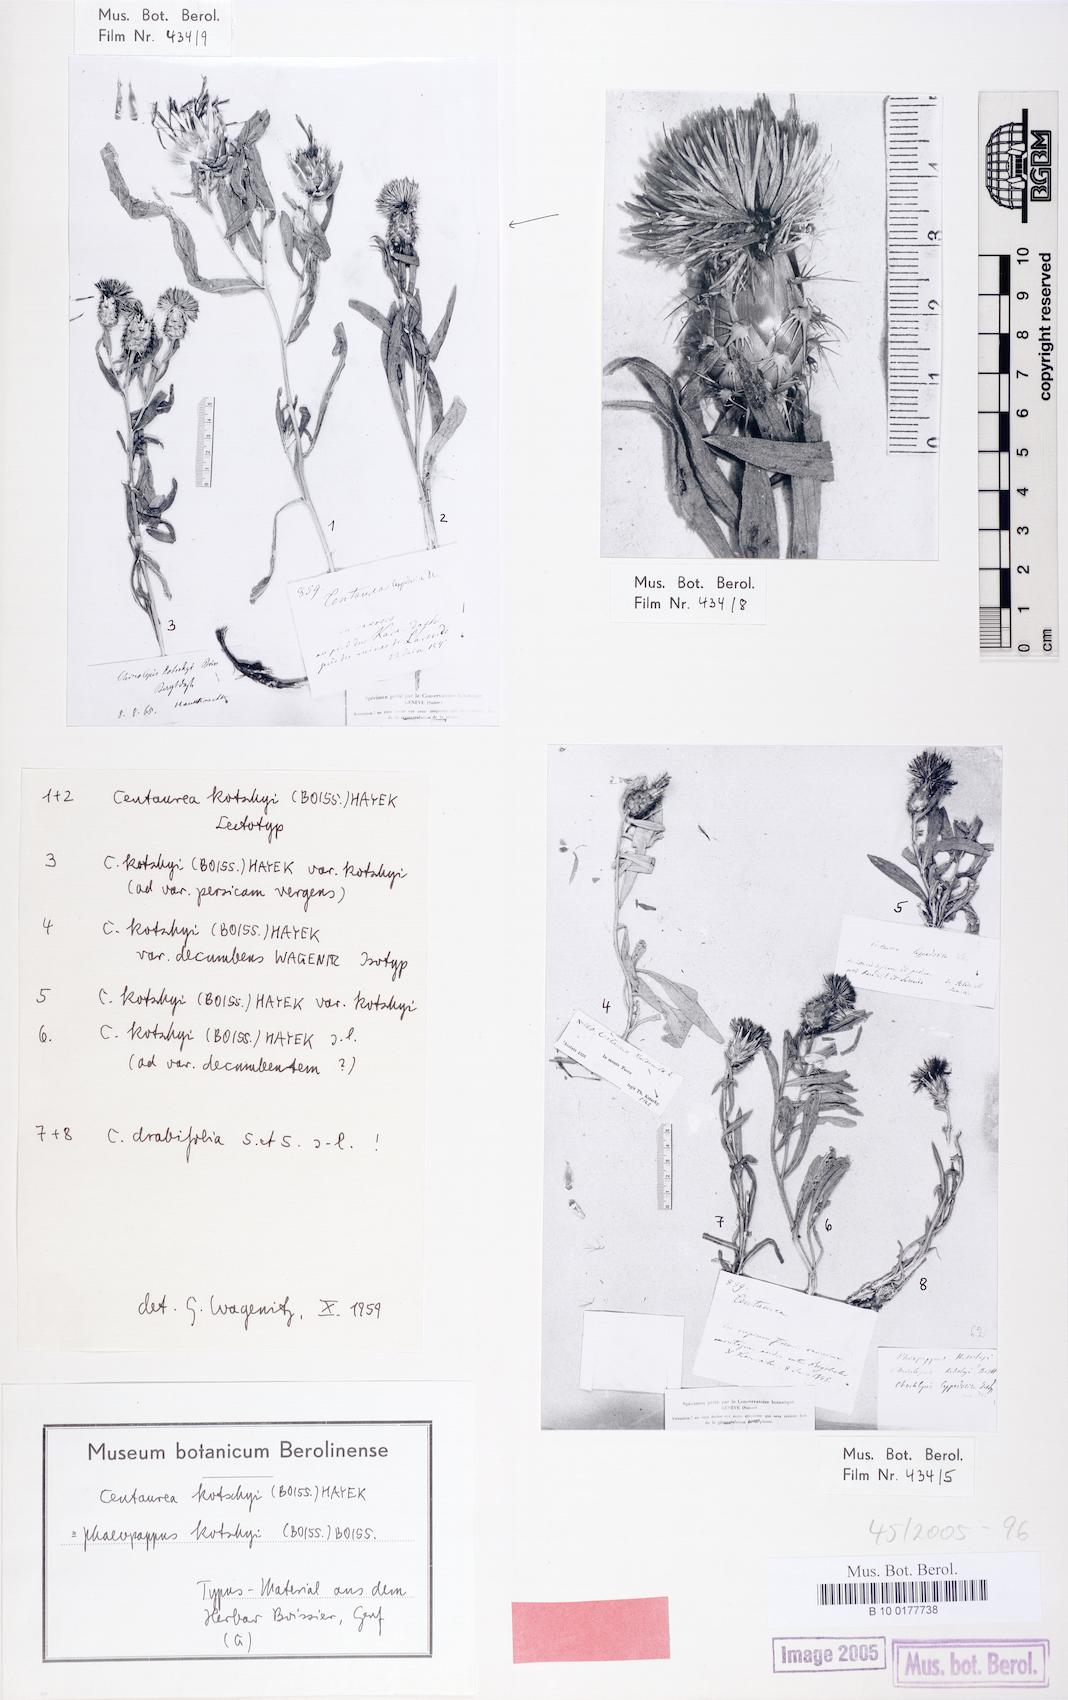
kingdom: Plantae
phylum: Tracheophyta
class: Magnoliopsida
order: Asterales
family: Asteraceae
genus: Centaurea
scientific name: Centaurea kotschyi
